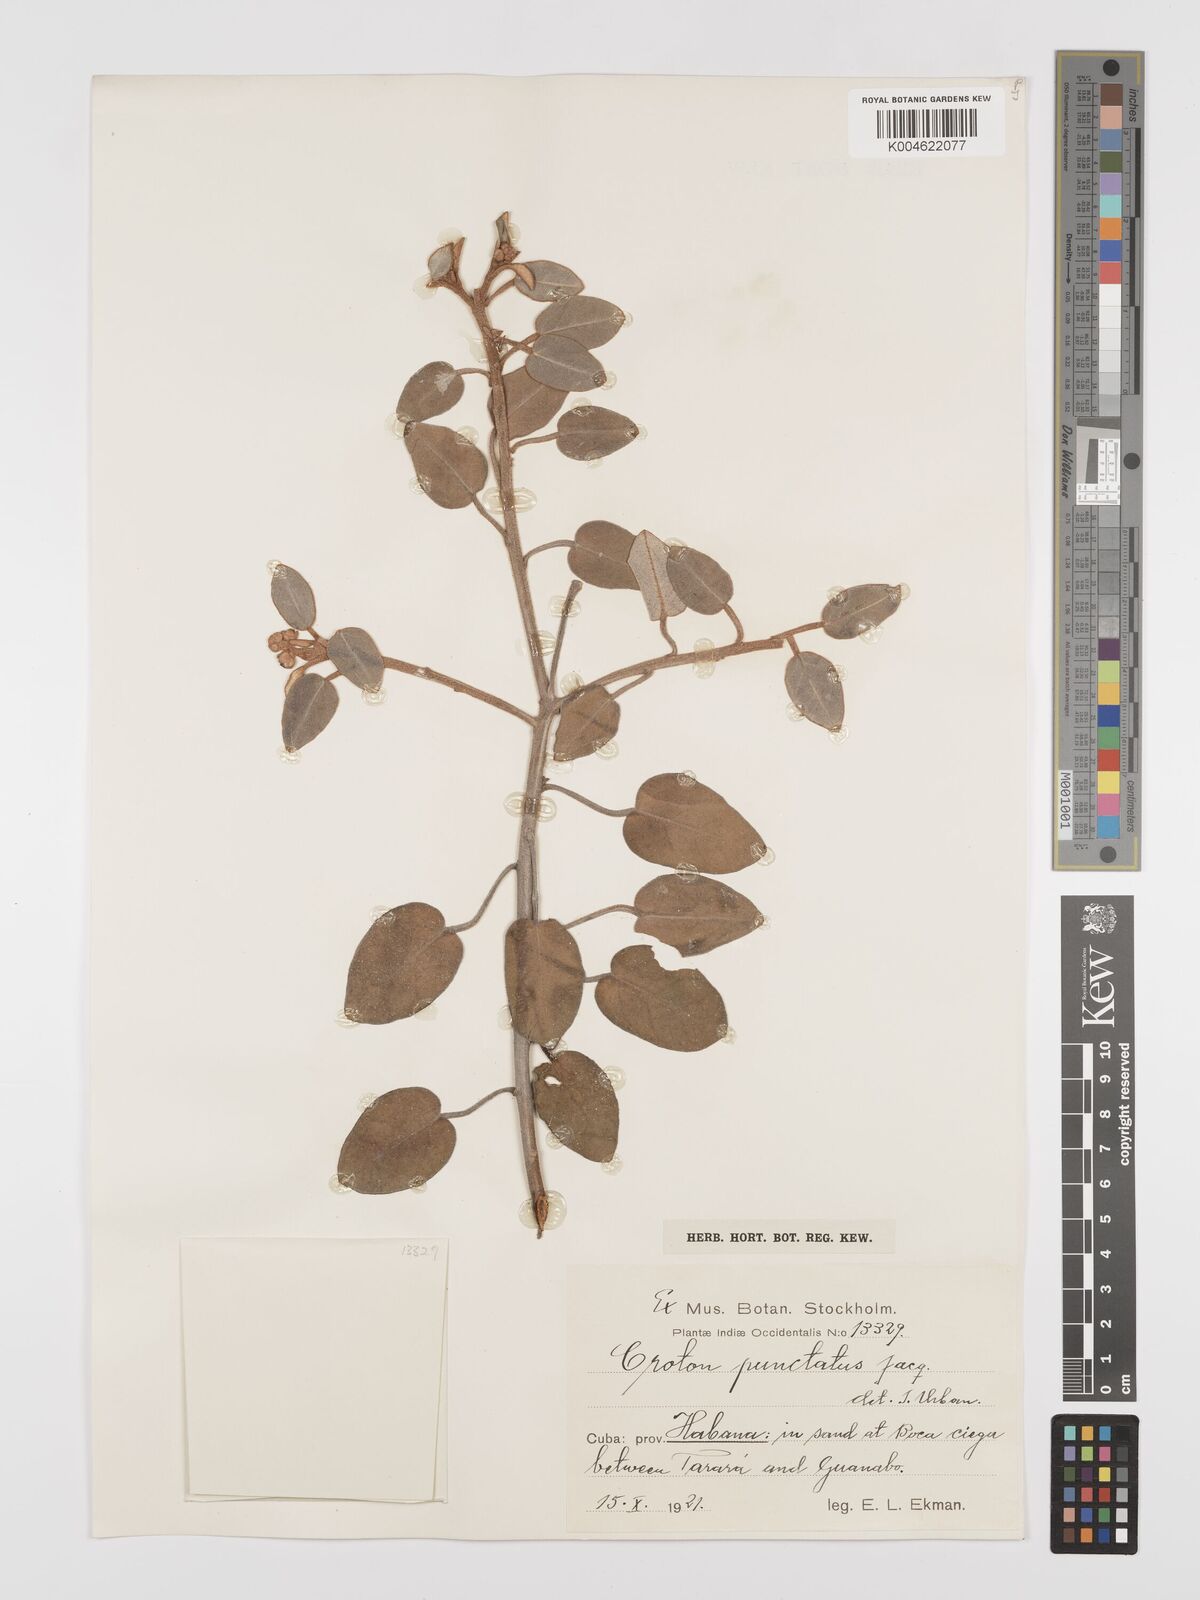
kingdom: Plantae
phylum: Tracheophyta
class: Magnoliopsida
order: Malpighiales
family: Euphorbiaceae
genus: Croton
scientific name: Croton argyranthemus
